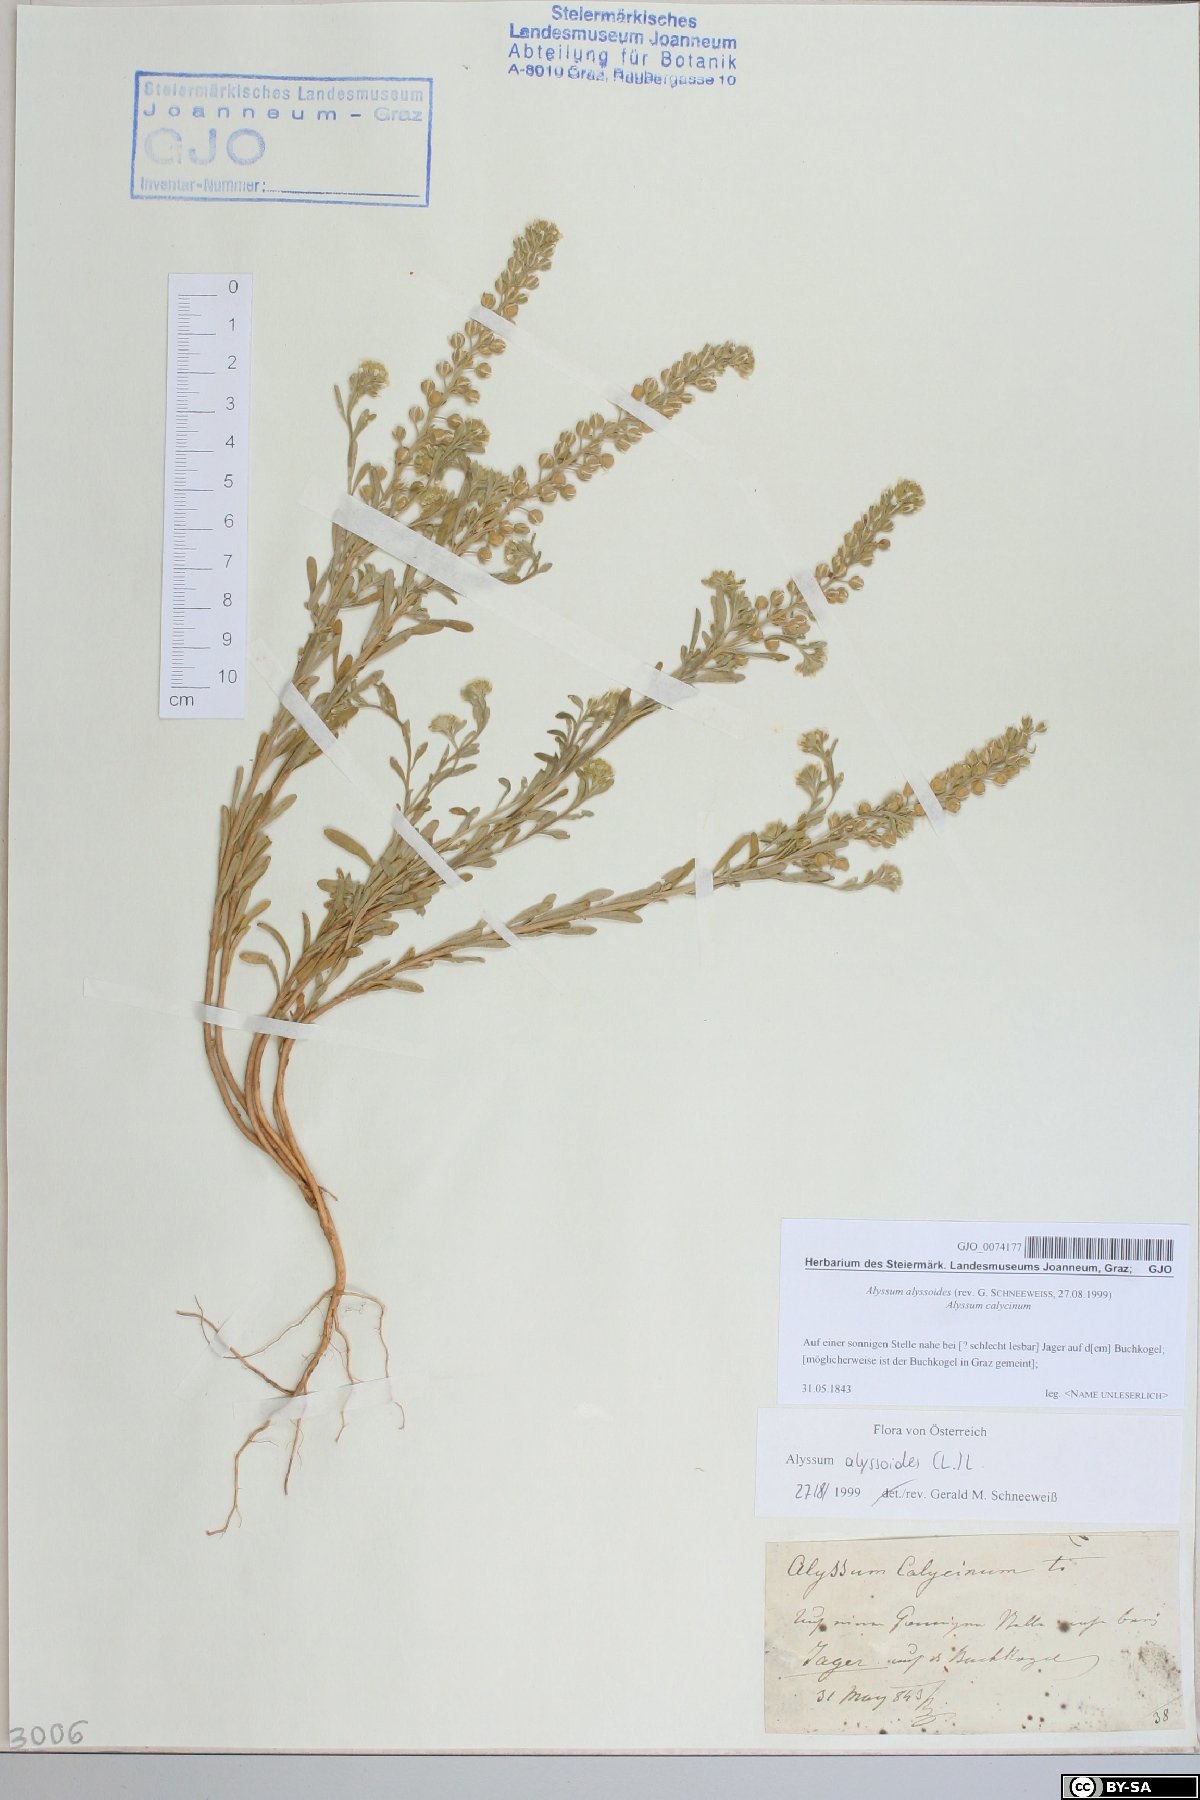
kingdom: Plantae
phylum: Tracheophyta
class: Magnoliopsida
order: Brassicales
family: Brassicaceae
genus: Alyssum
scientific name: Alyssum alyssoides
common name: Small alison
